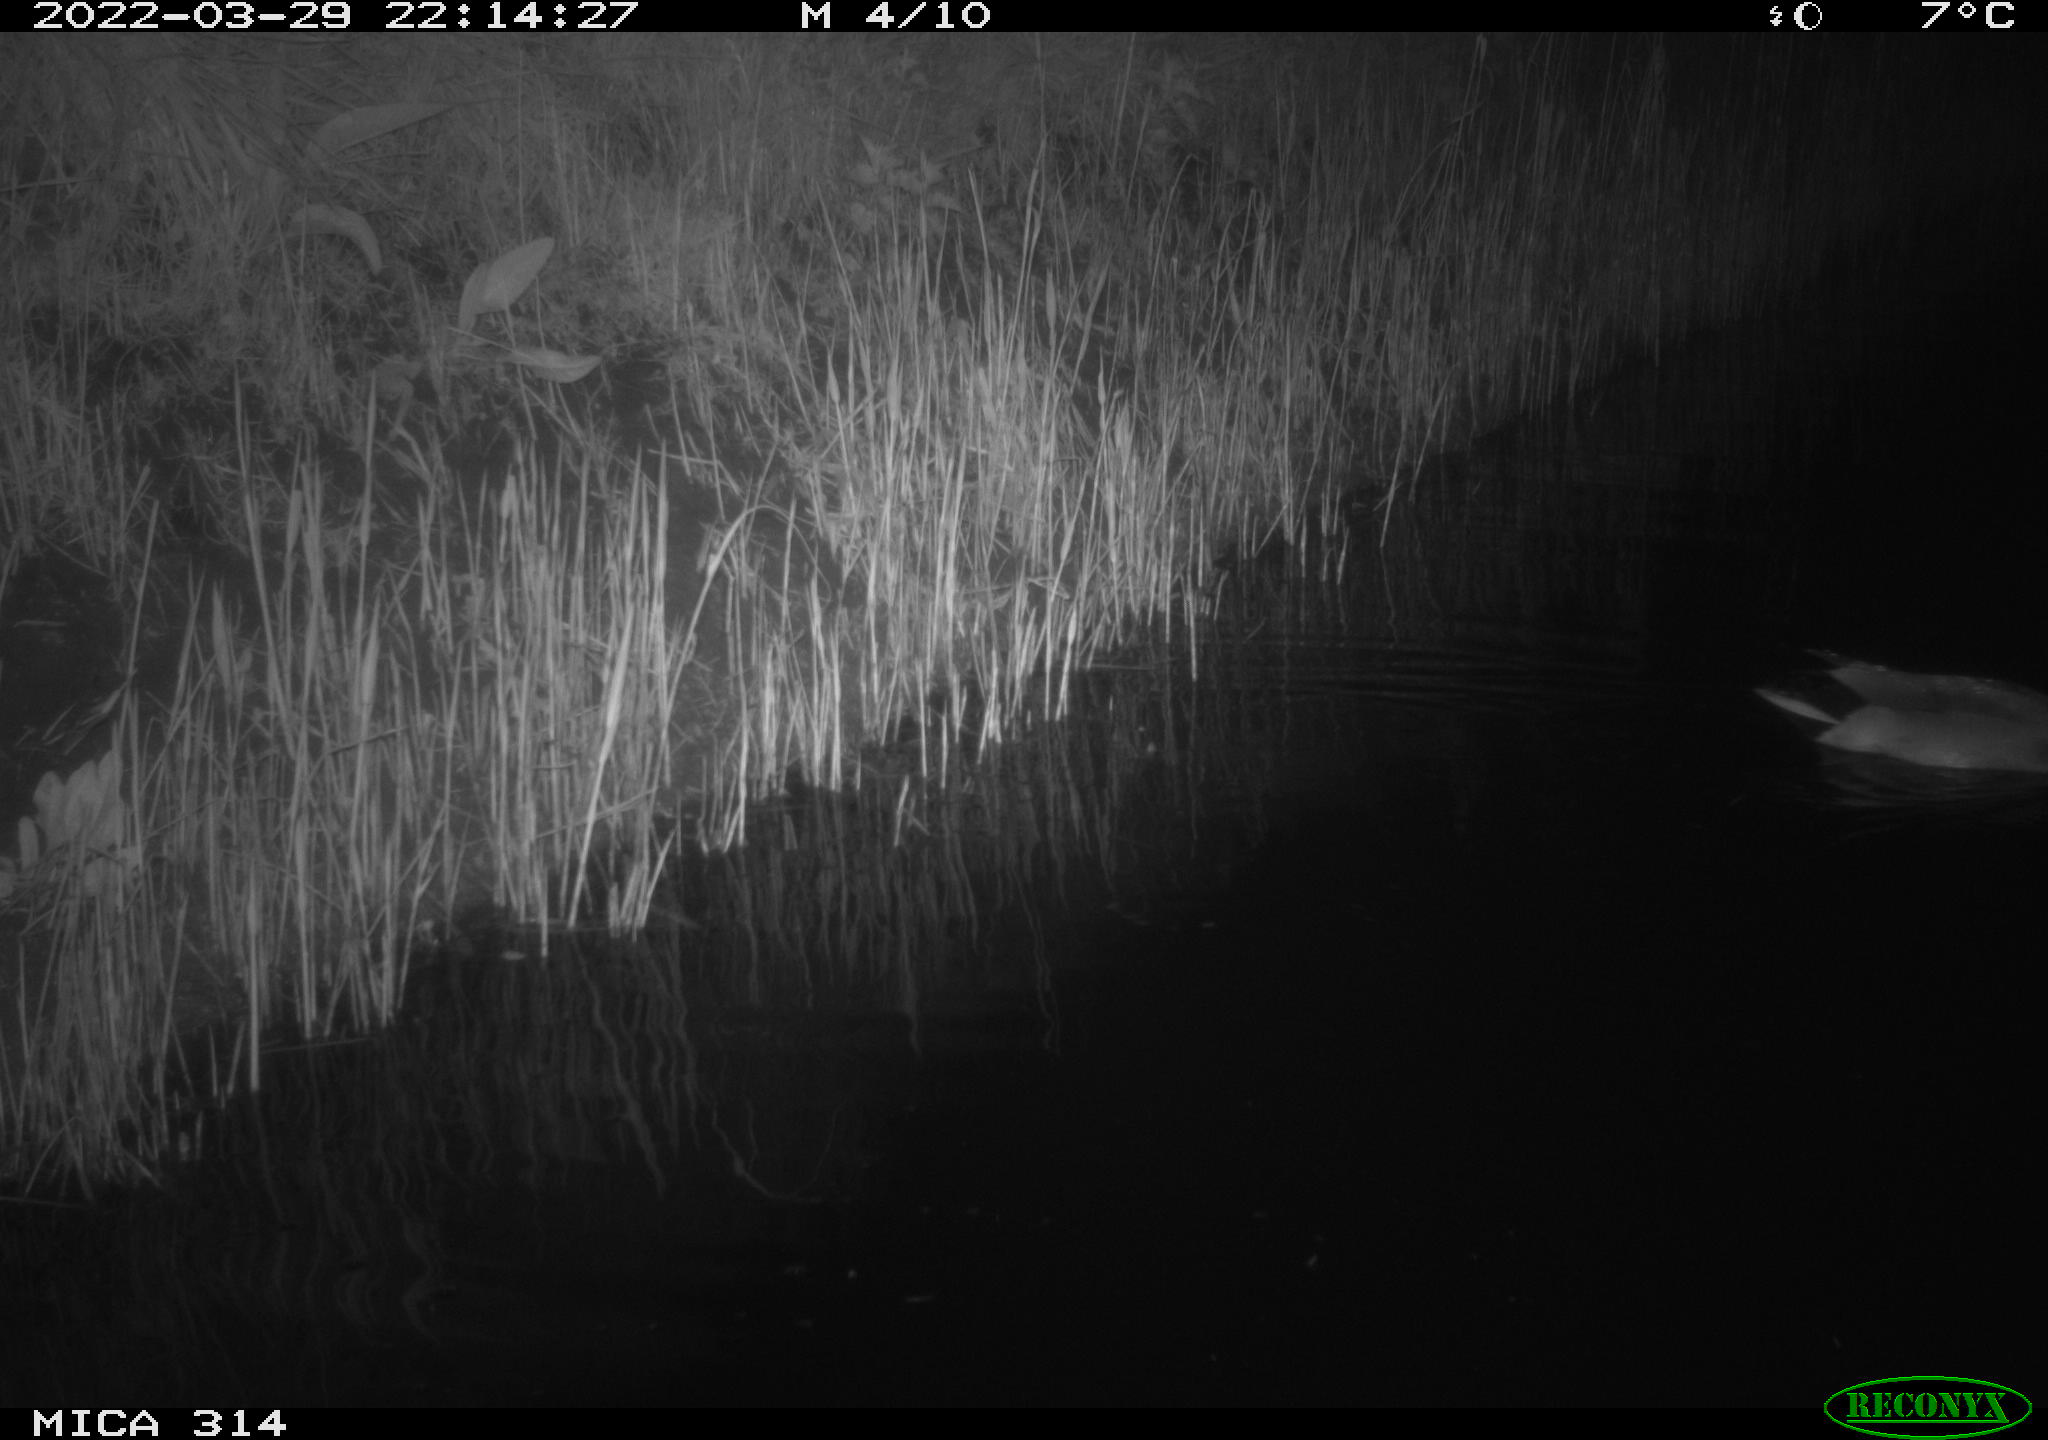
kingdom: Animalia
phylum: Chordata
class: Aves
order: Anseriformes
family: Anatidae
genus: Anas
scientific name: Anas platyrhynchos
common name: Mallard
